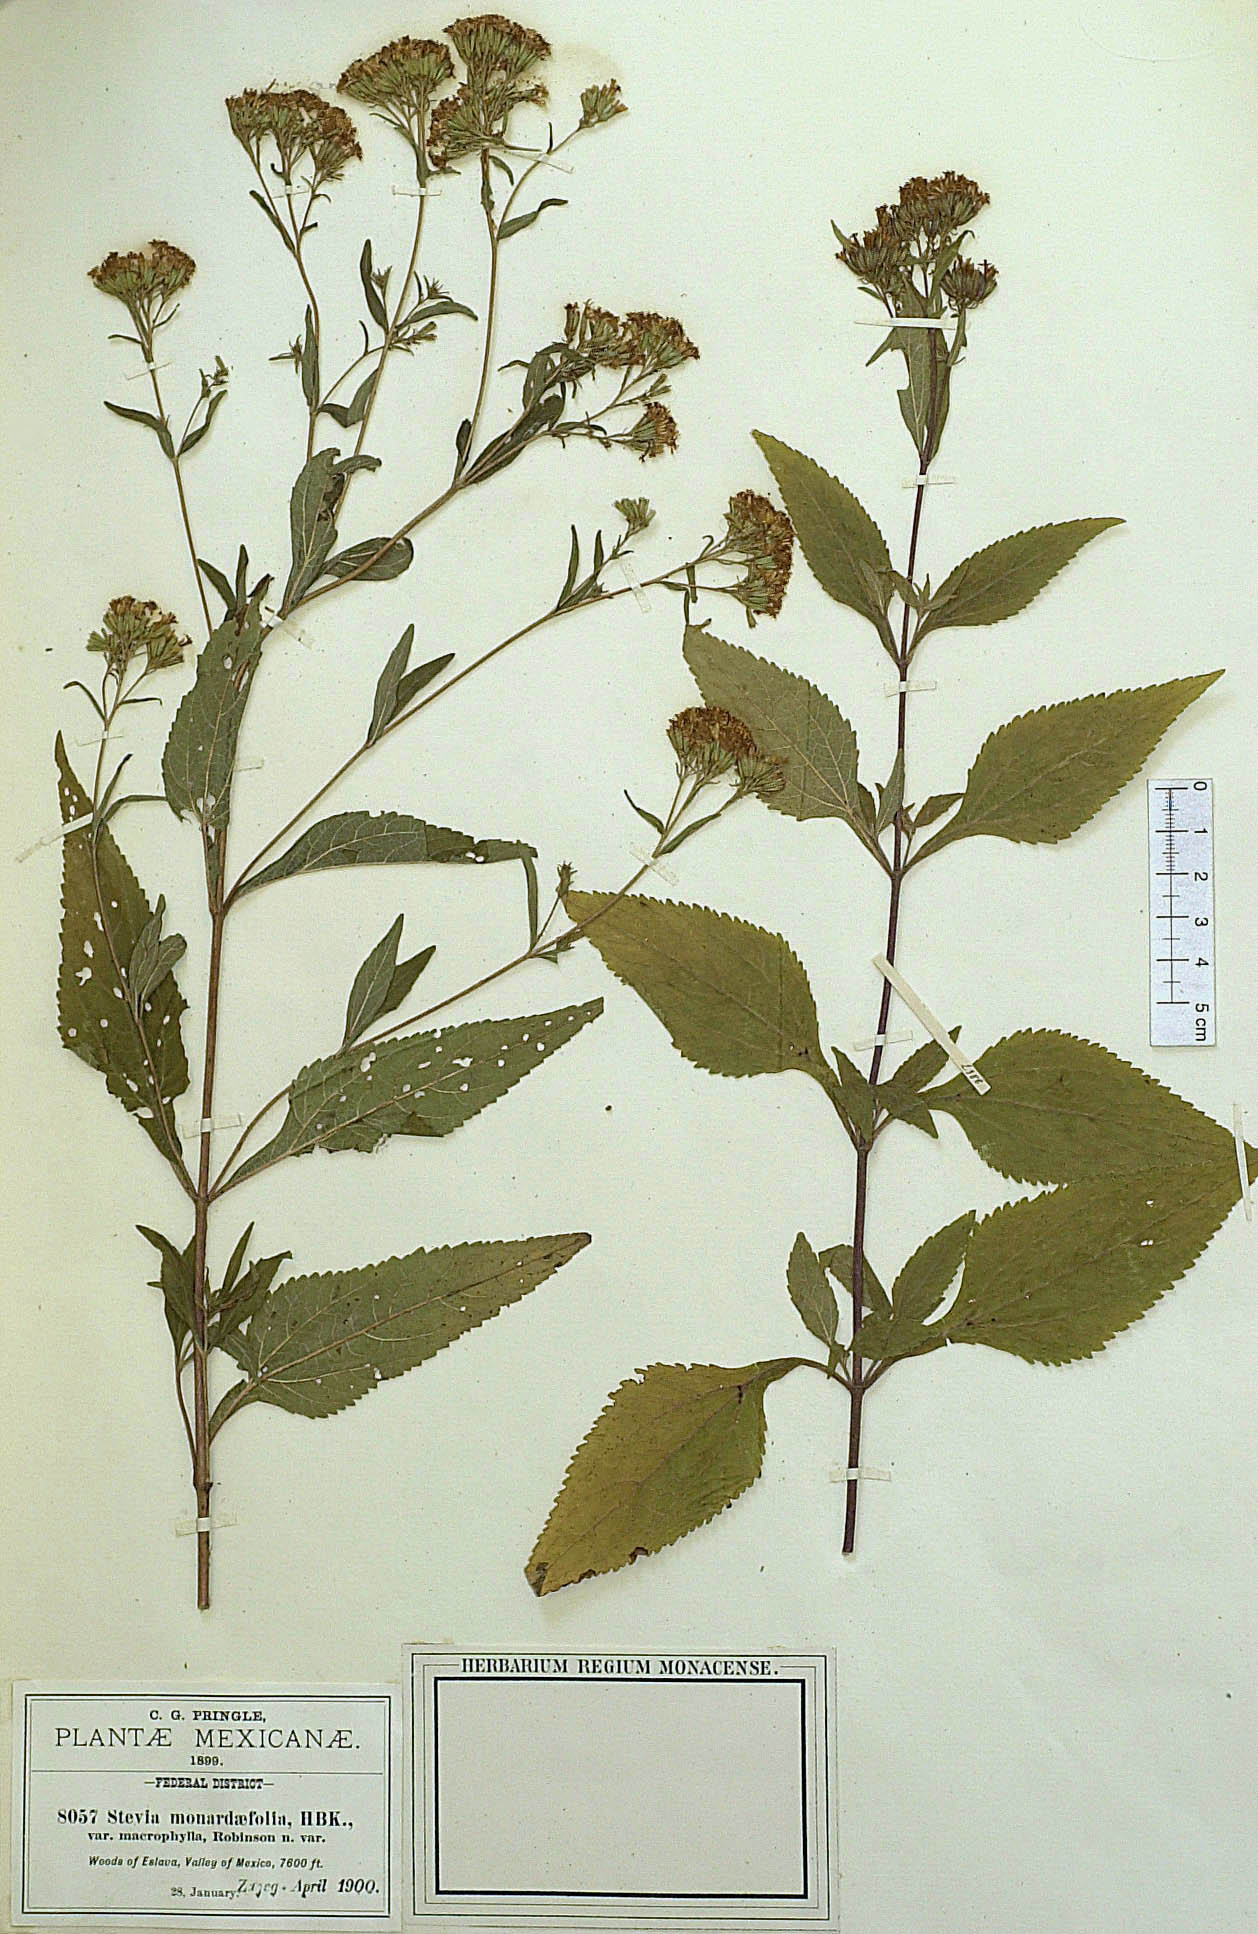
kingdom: Plantae
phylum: Tracheophyta
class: Magnoliopsida
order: Asterales
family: Asteraceae
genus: Stevia
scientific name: Stevia monardifolia
